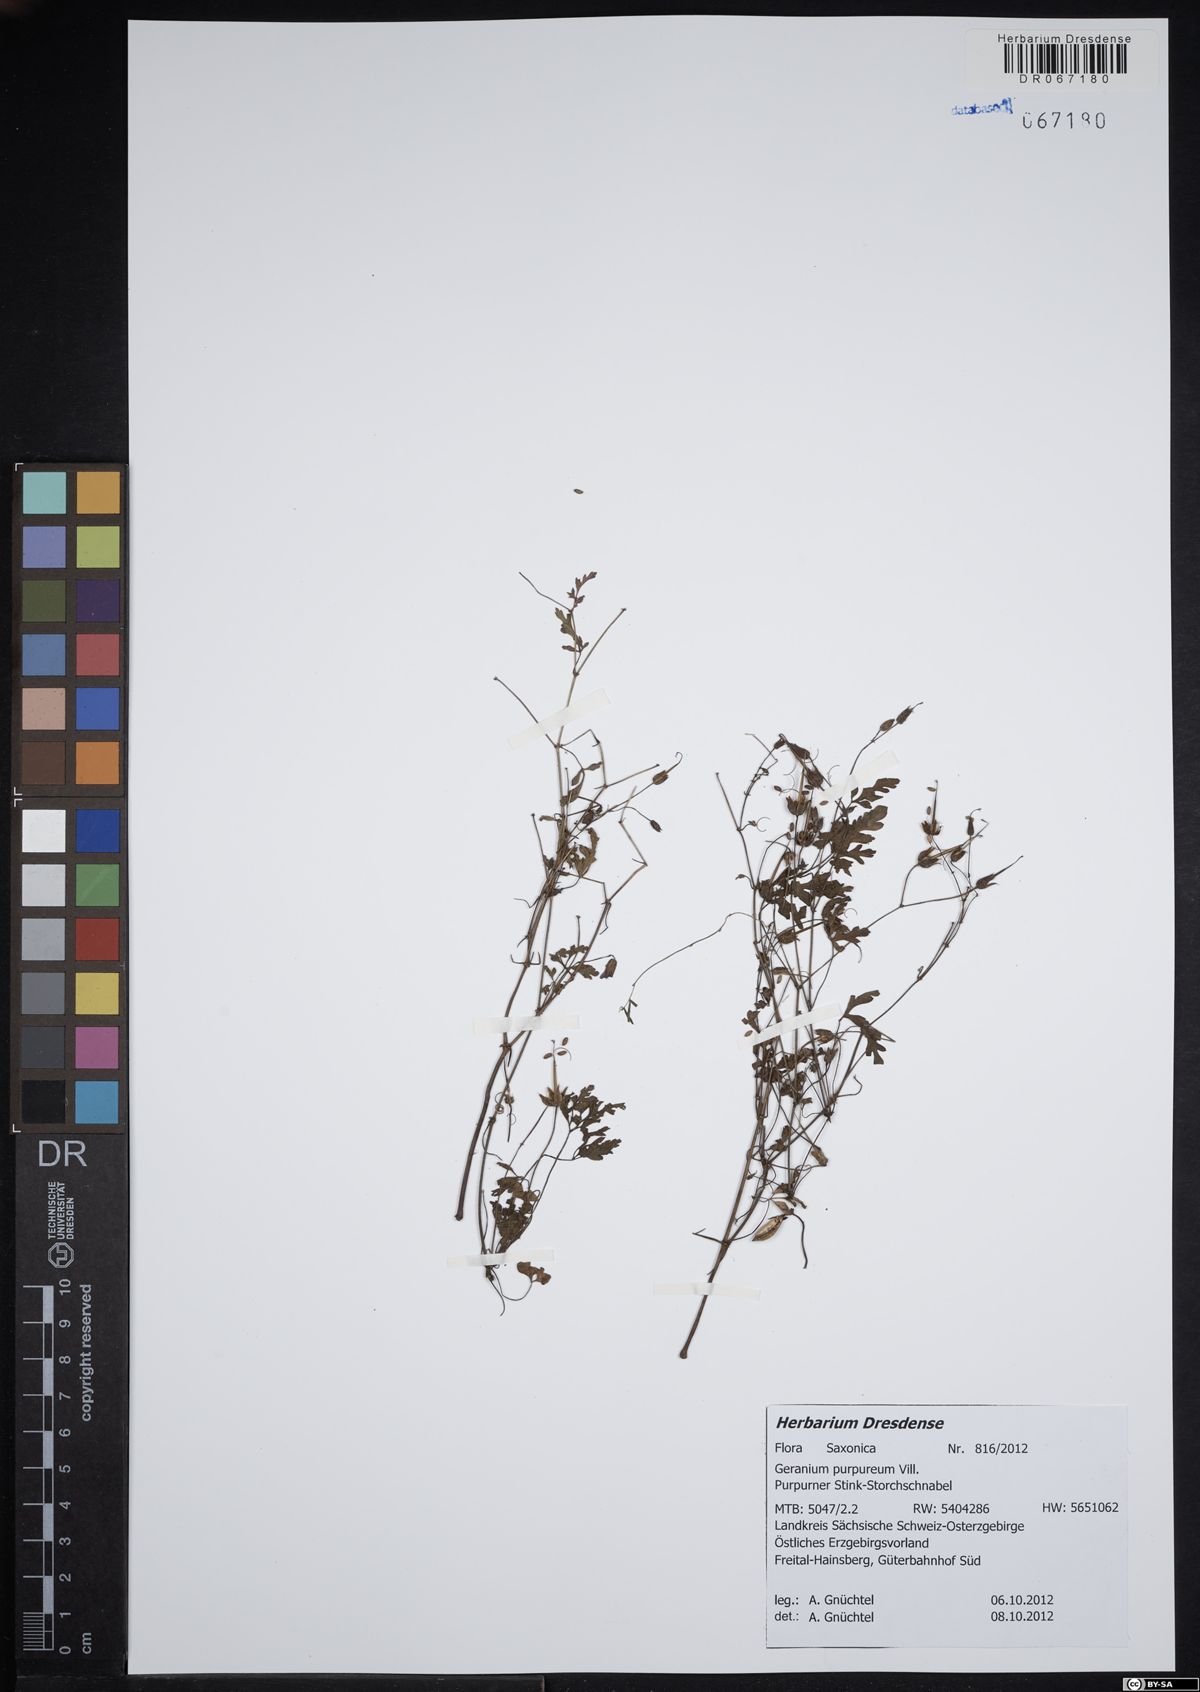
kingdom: Plantae
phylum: Tracheophyta
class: Magnoliopsida
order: Geraniales
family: Geraniaceae
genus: Geranium
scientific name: Geranium purpureum
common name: Little-robin
